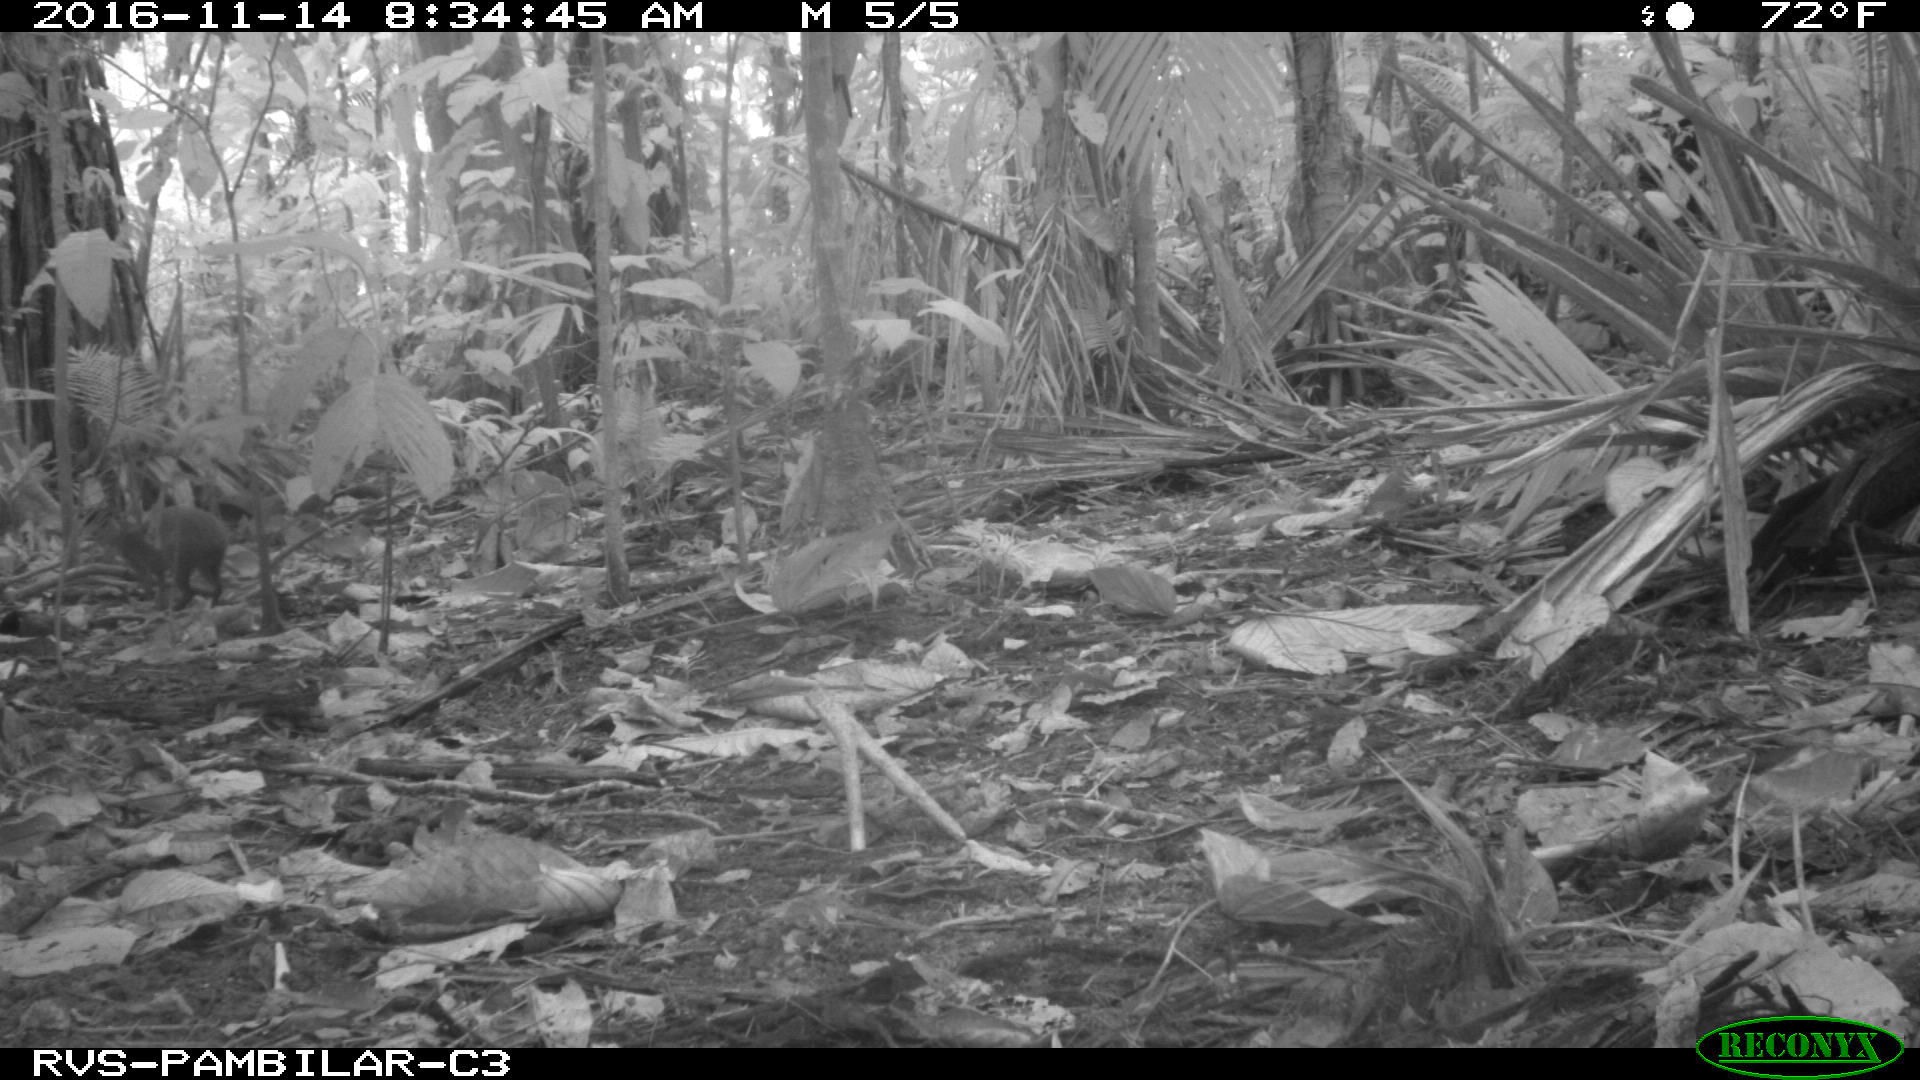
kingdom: Animalia
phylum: Chordata
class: Mammalia
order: Rodentia
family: Dasyproctidae
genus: Dasyprocta
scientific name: Dasyprocta punctata
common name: Central american agouti
